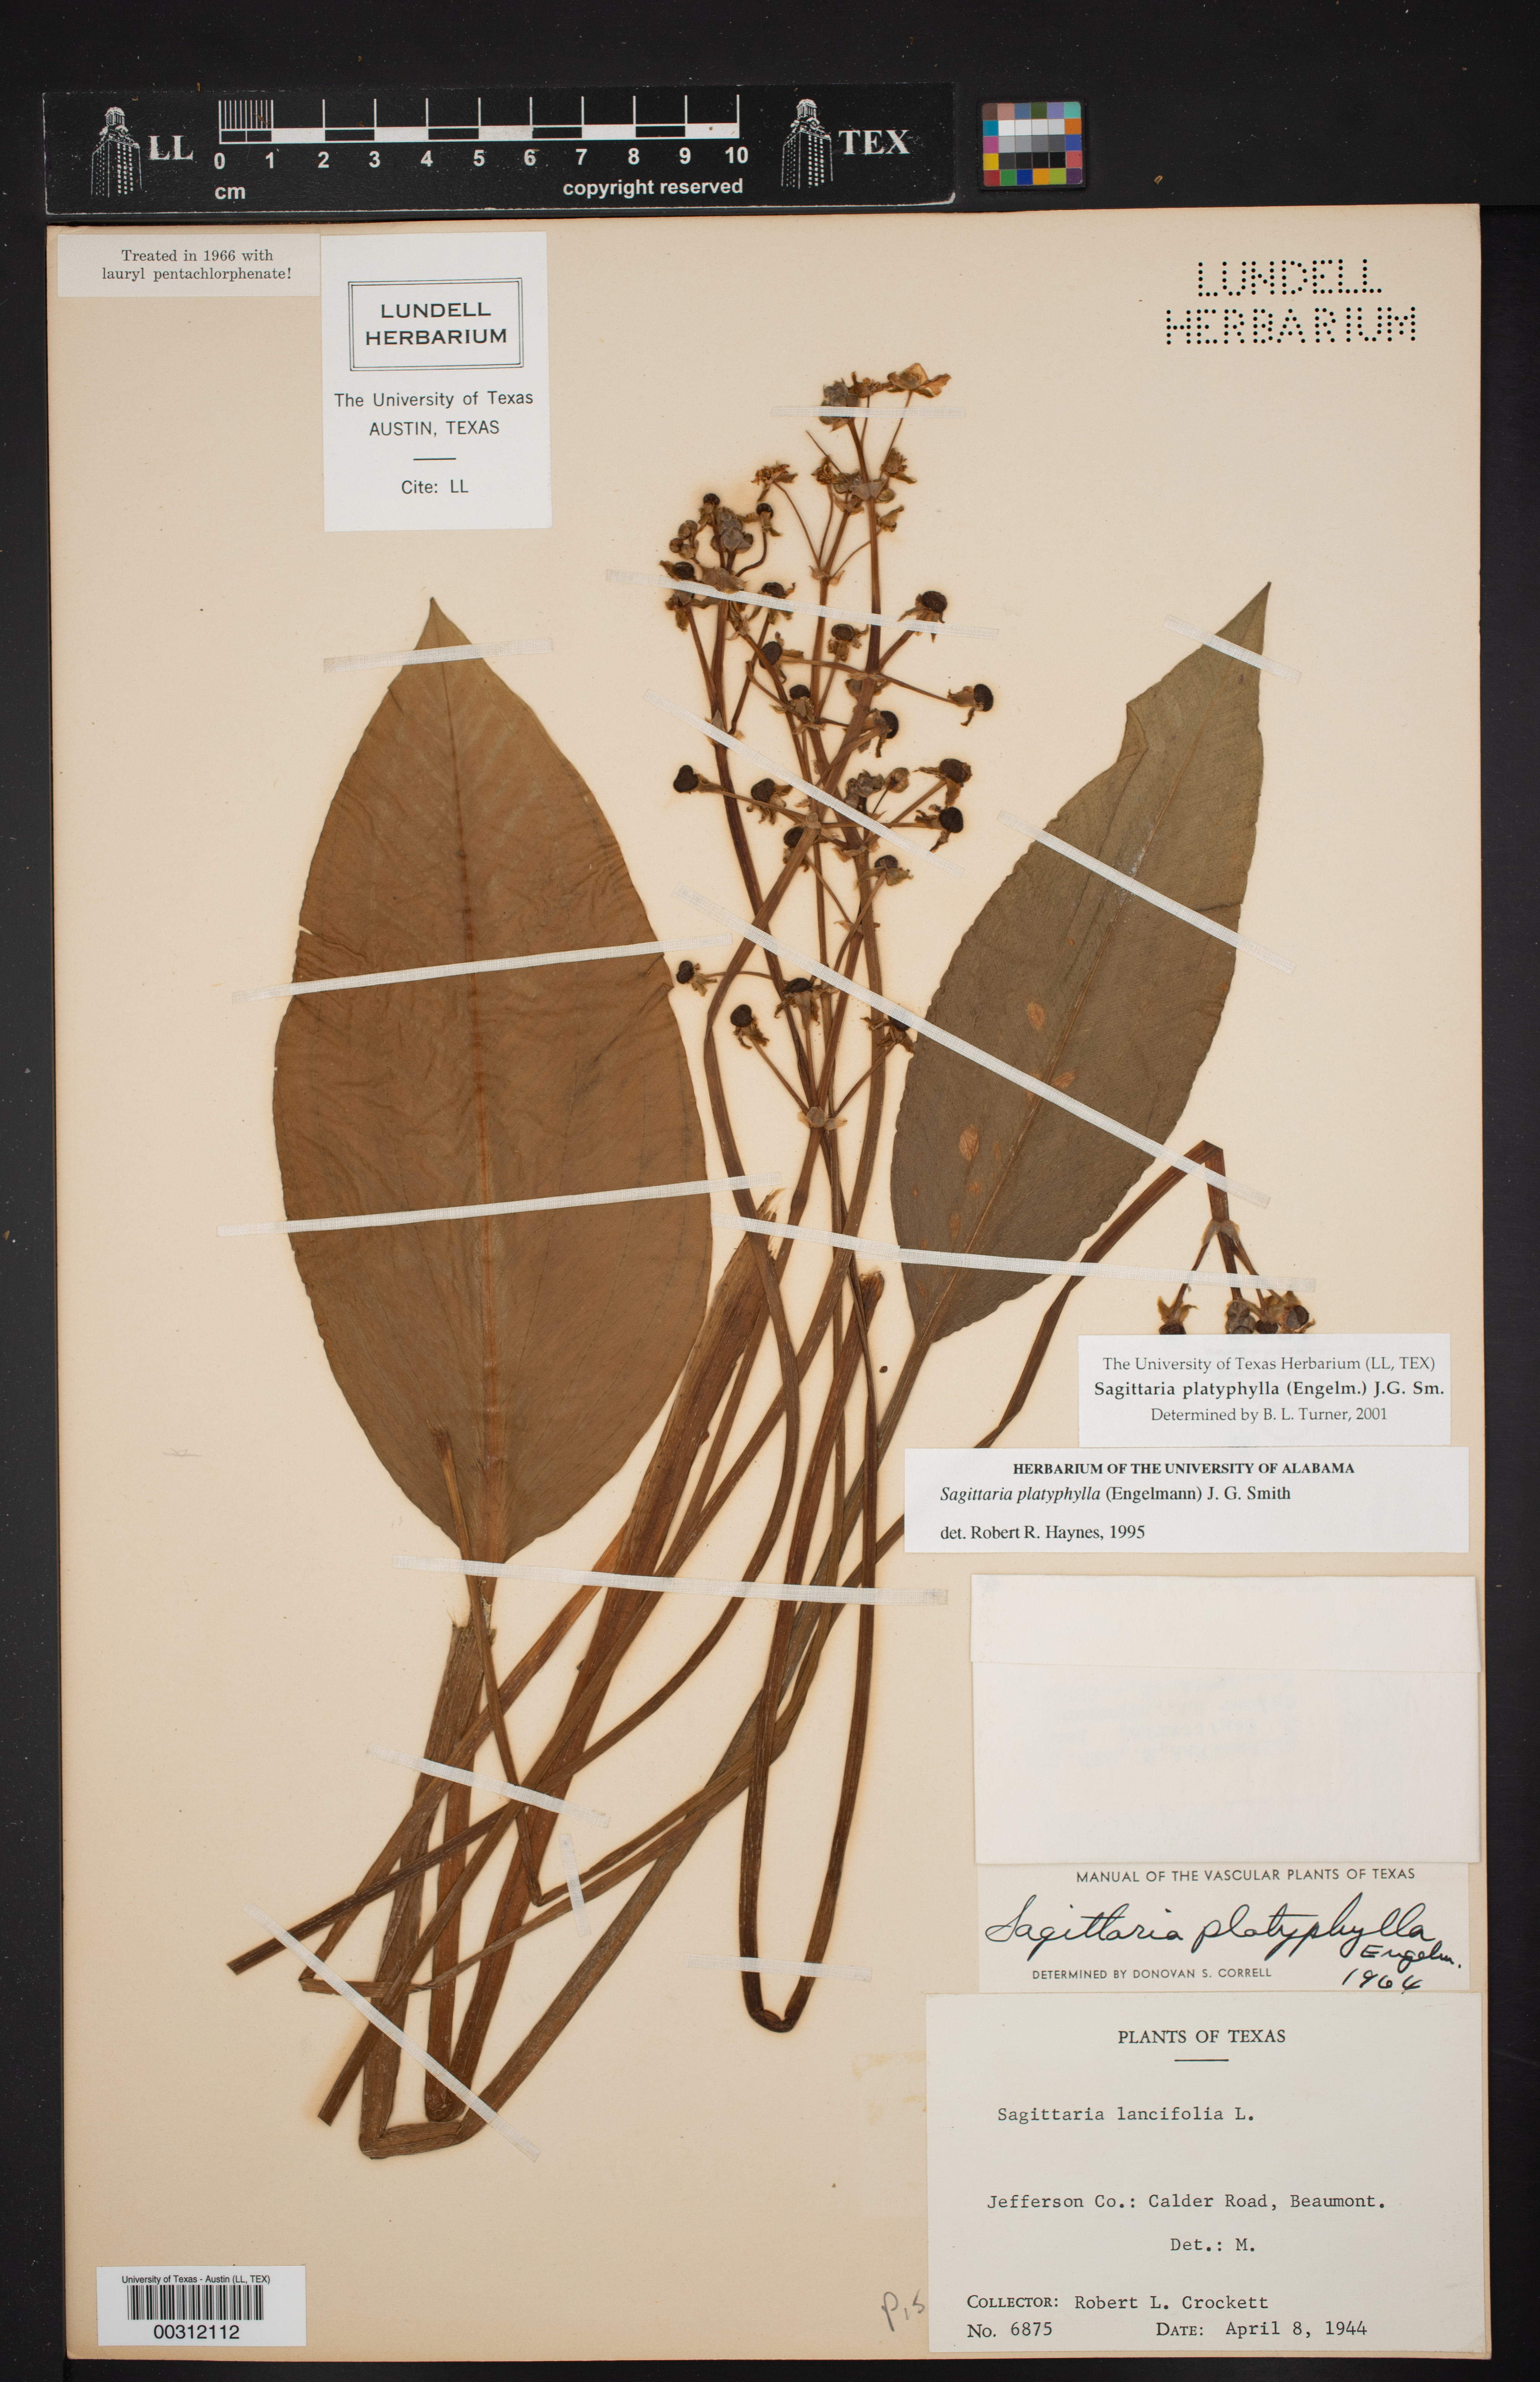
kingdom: Plantae
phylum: Tracheophyta
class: Liliopsida
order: Alismatales
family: Alismataceae
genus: Sagittaria
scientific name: Sagittaria platyphylla
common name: Broad-leaf arrowhead
